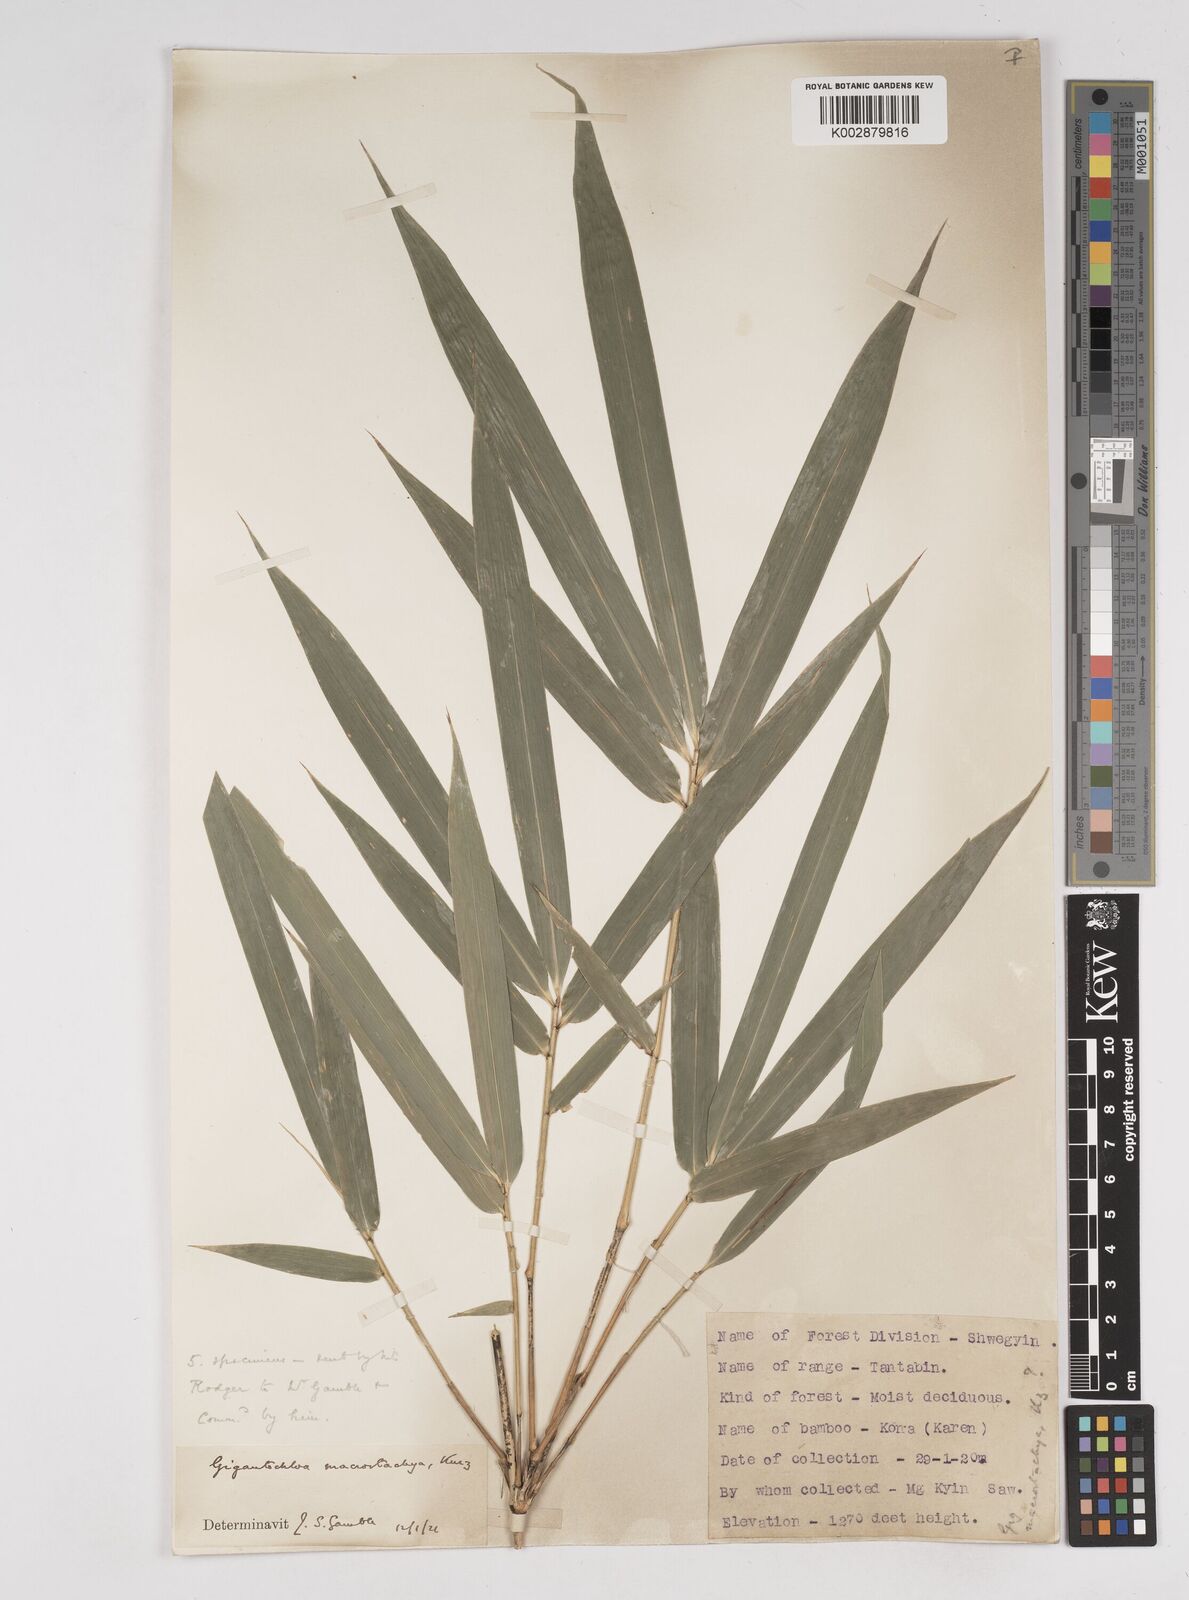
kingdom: Plantae
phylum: Tracheophyta
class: Liliopsida
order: Poales
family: Poaceae
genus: Gigantochloa
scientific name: Gigantochloa macrostachya
